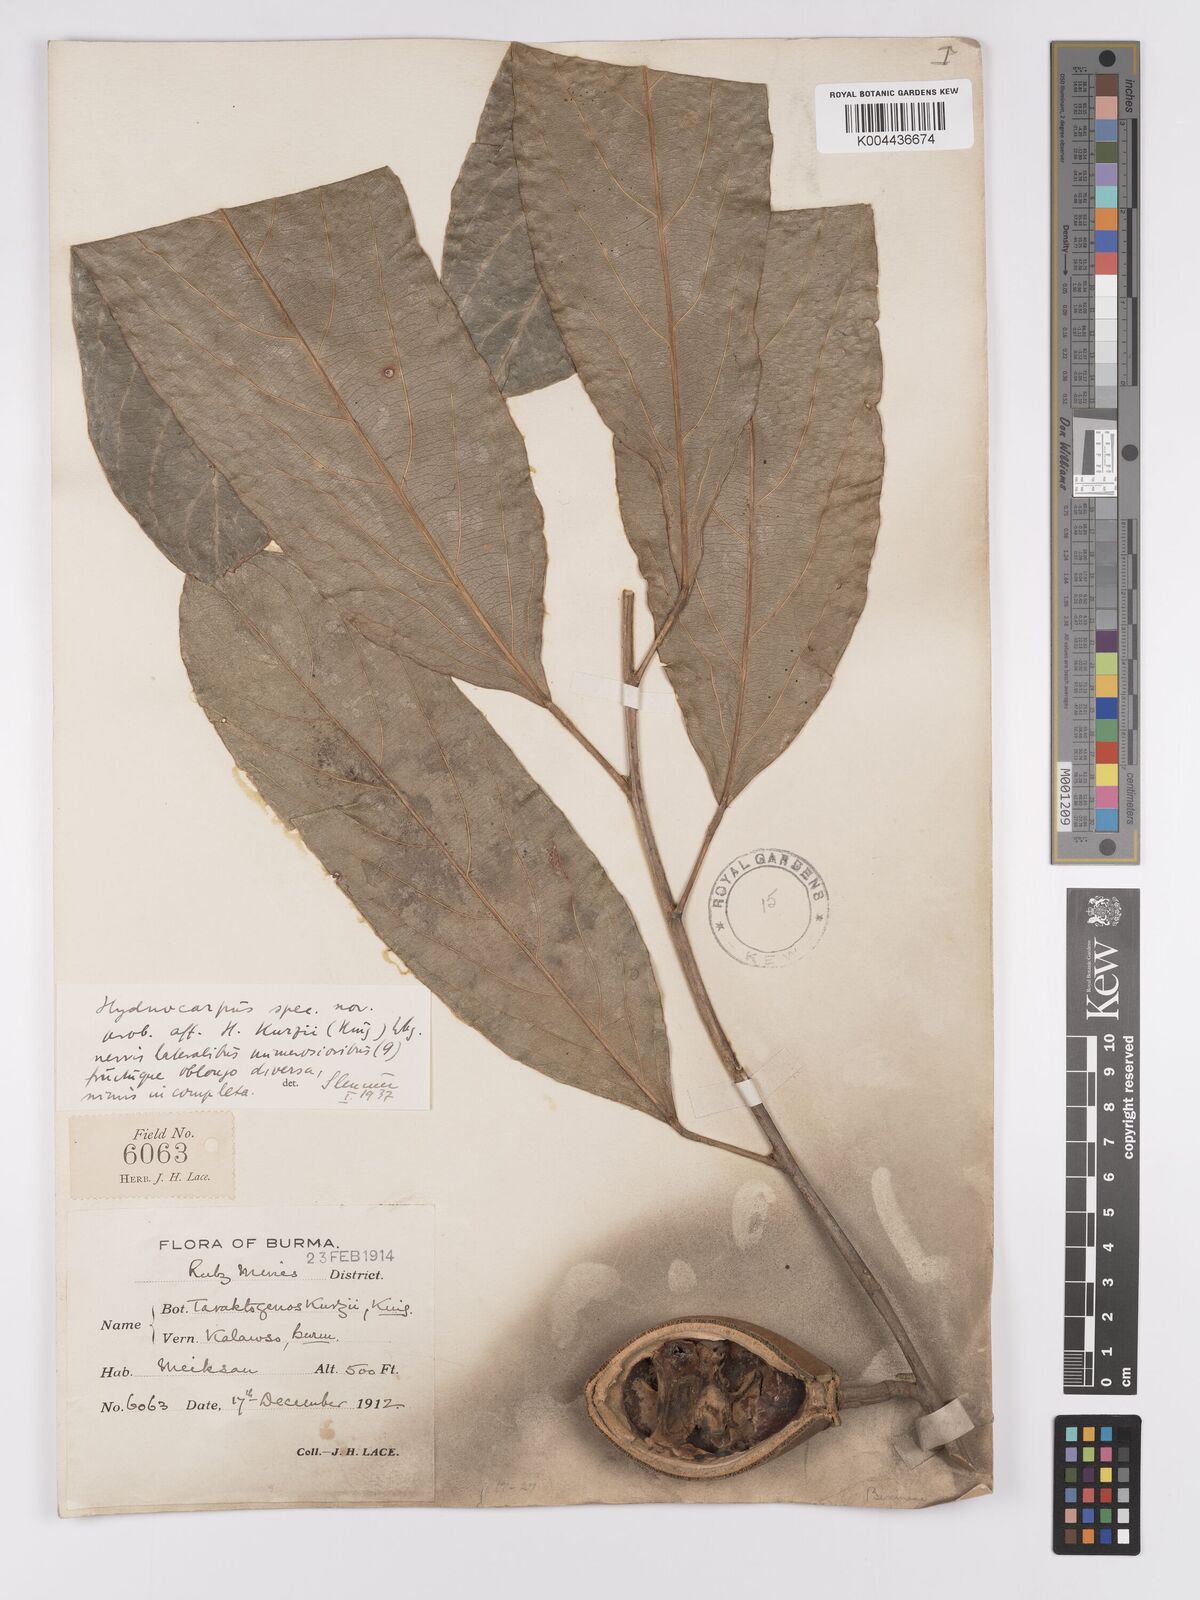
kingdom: Plantae
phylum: Tracheophyta
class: Magnoliopsida
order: Malpighiales
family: Achariaceae
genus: Hydnocarpus
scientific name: Hydnocarpus kurzii
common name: Chaulmoogra
